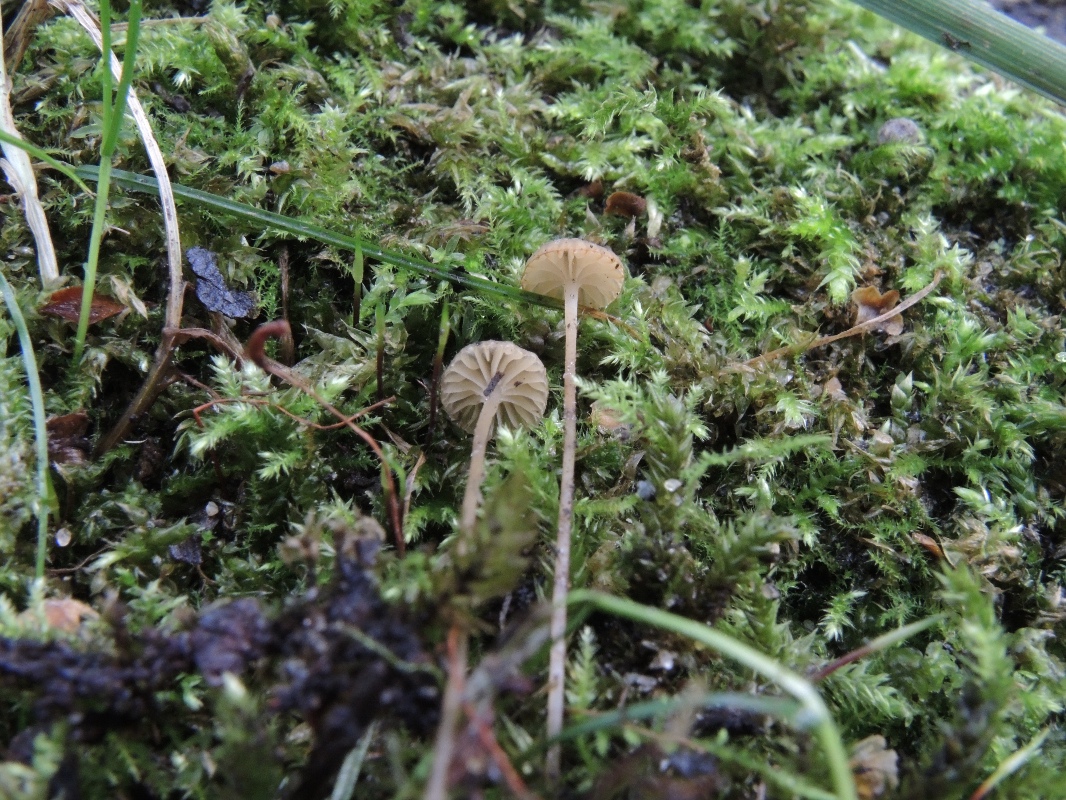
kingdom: Fungi
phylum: Basidiomycota
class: Agaricomycetes
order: Agaricales
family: Porotheleaceae
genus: Phloeomana
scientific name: Phloeomana speirea
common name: kvist-huesvamp
